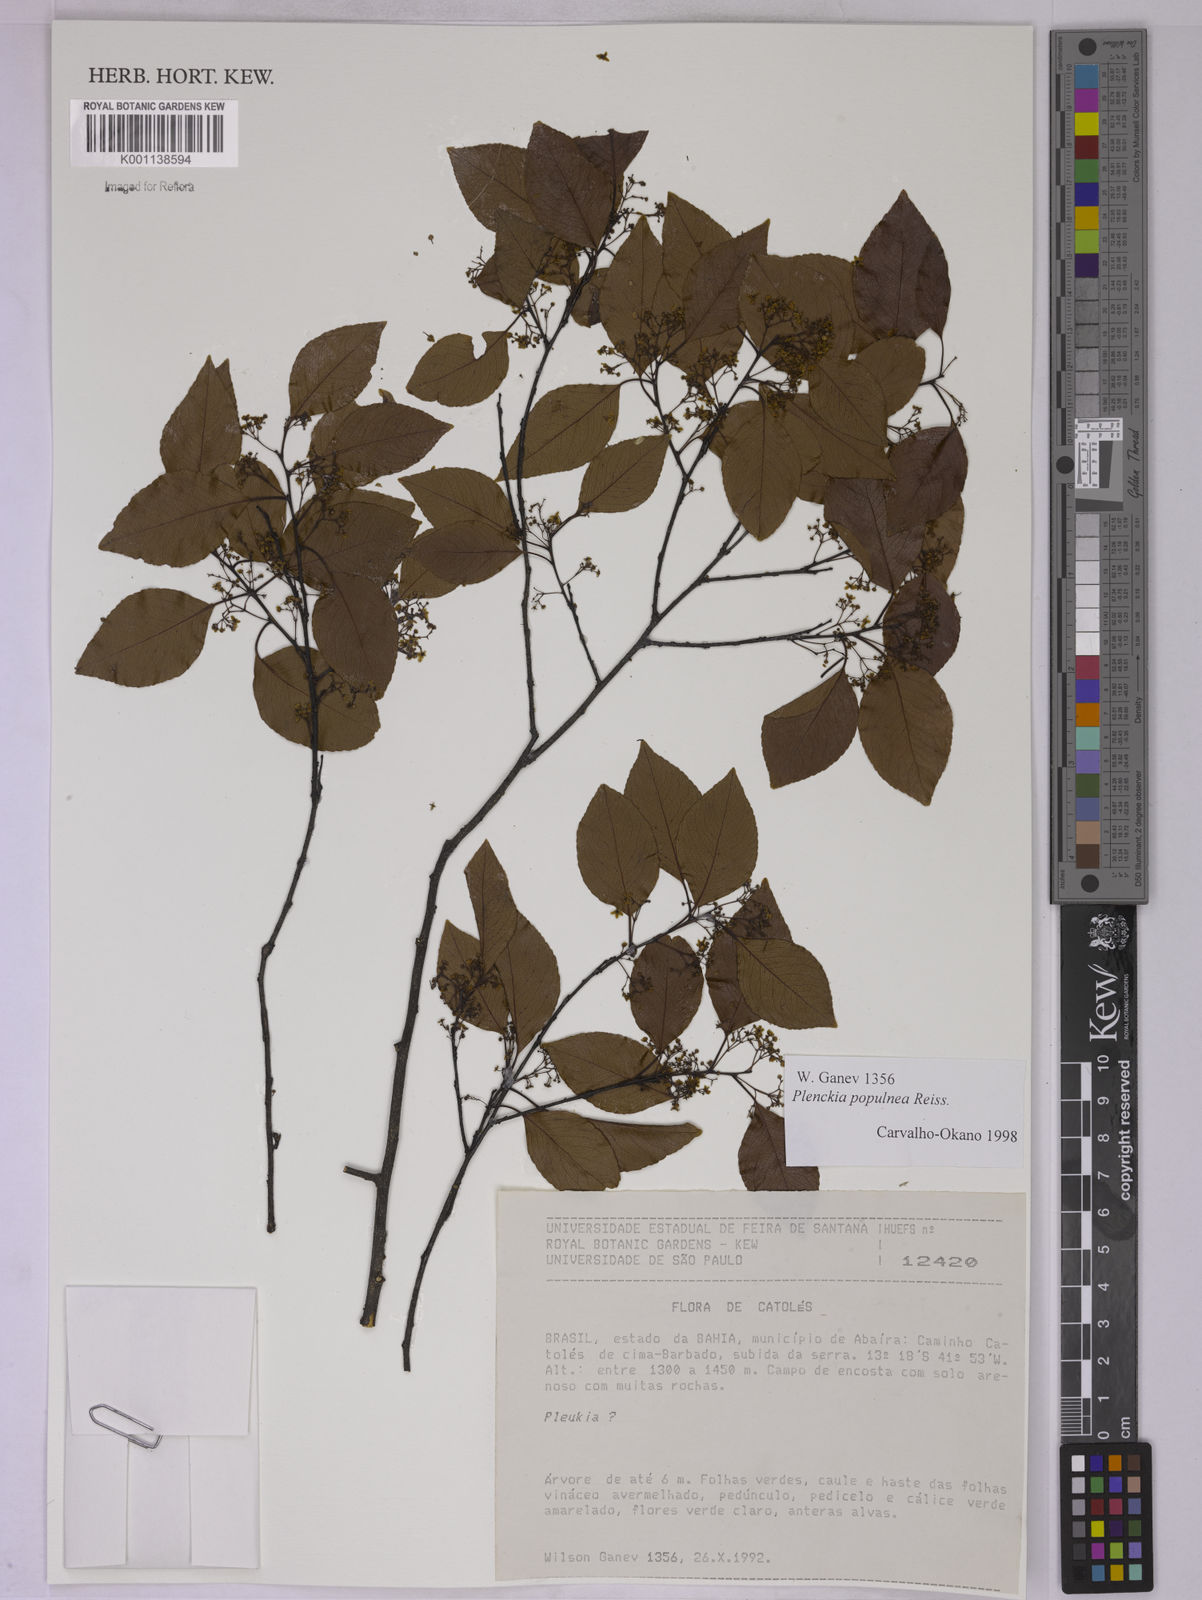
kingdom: Plantae
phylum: Tracheophyta
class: Magnoliopsida
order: Celastrales
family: Celastraceae
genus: Plenckia
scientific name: Plenckia populnea
